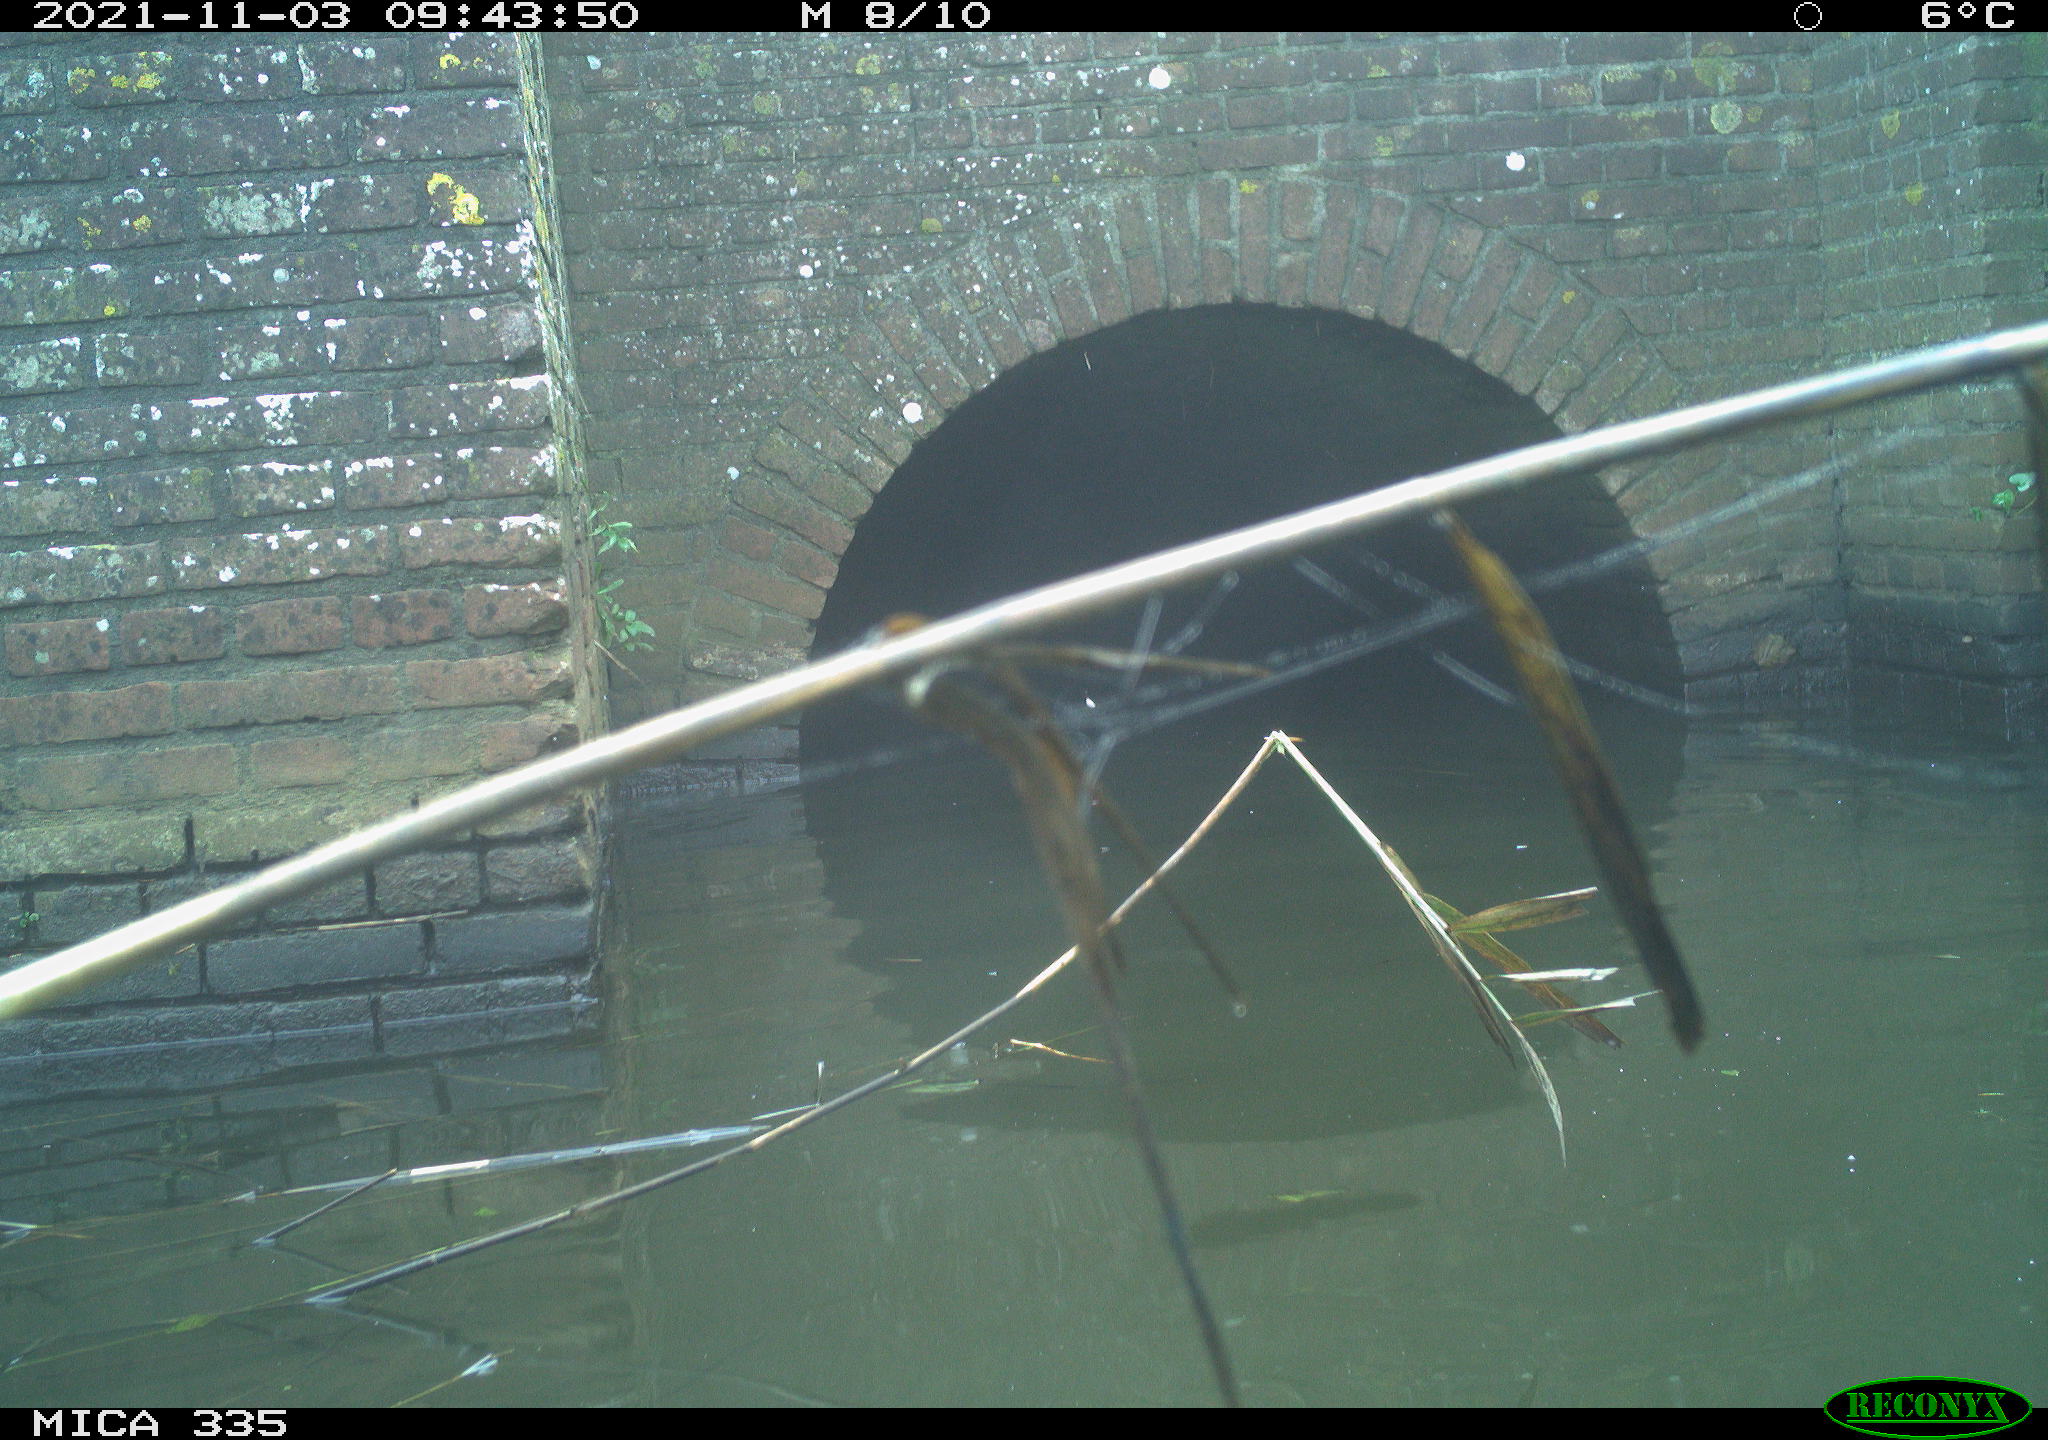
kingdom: Animalia
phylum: Chordata
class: Aves
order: Gruiformes
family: Rallidae
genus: Fulica
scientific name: Fulica atra
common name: Eurasian coot
